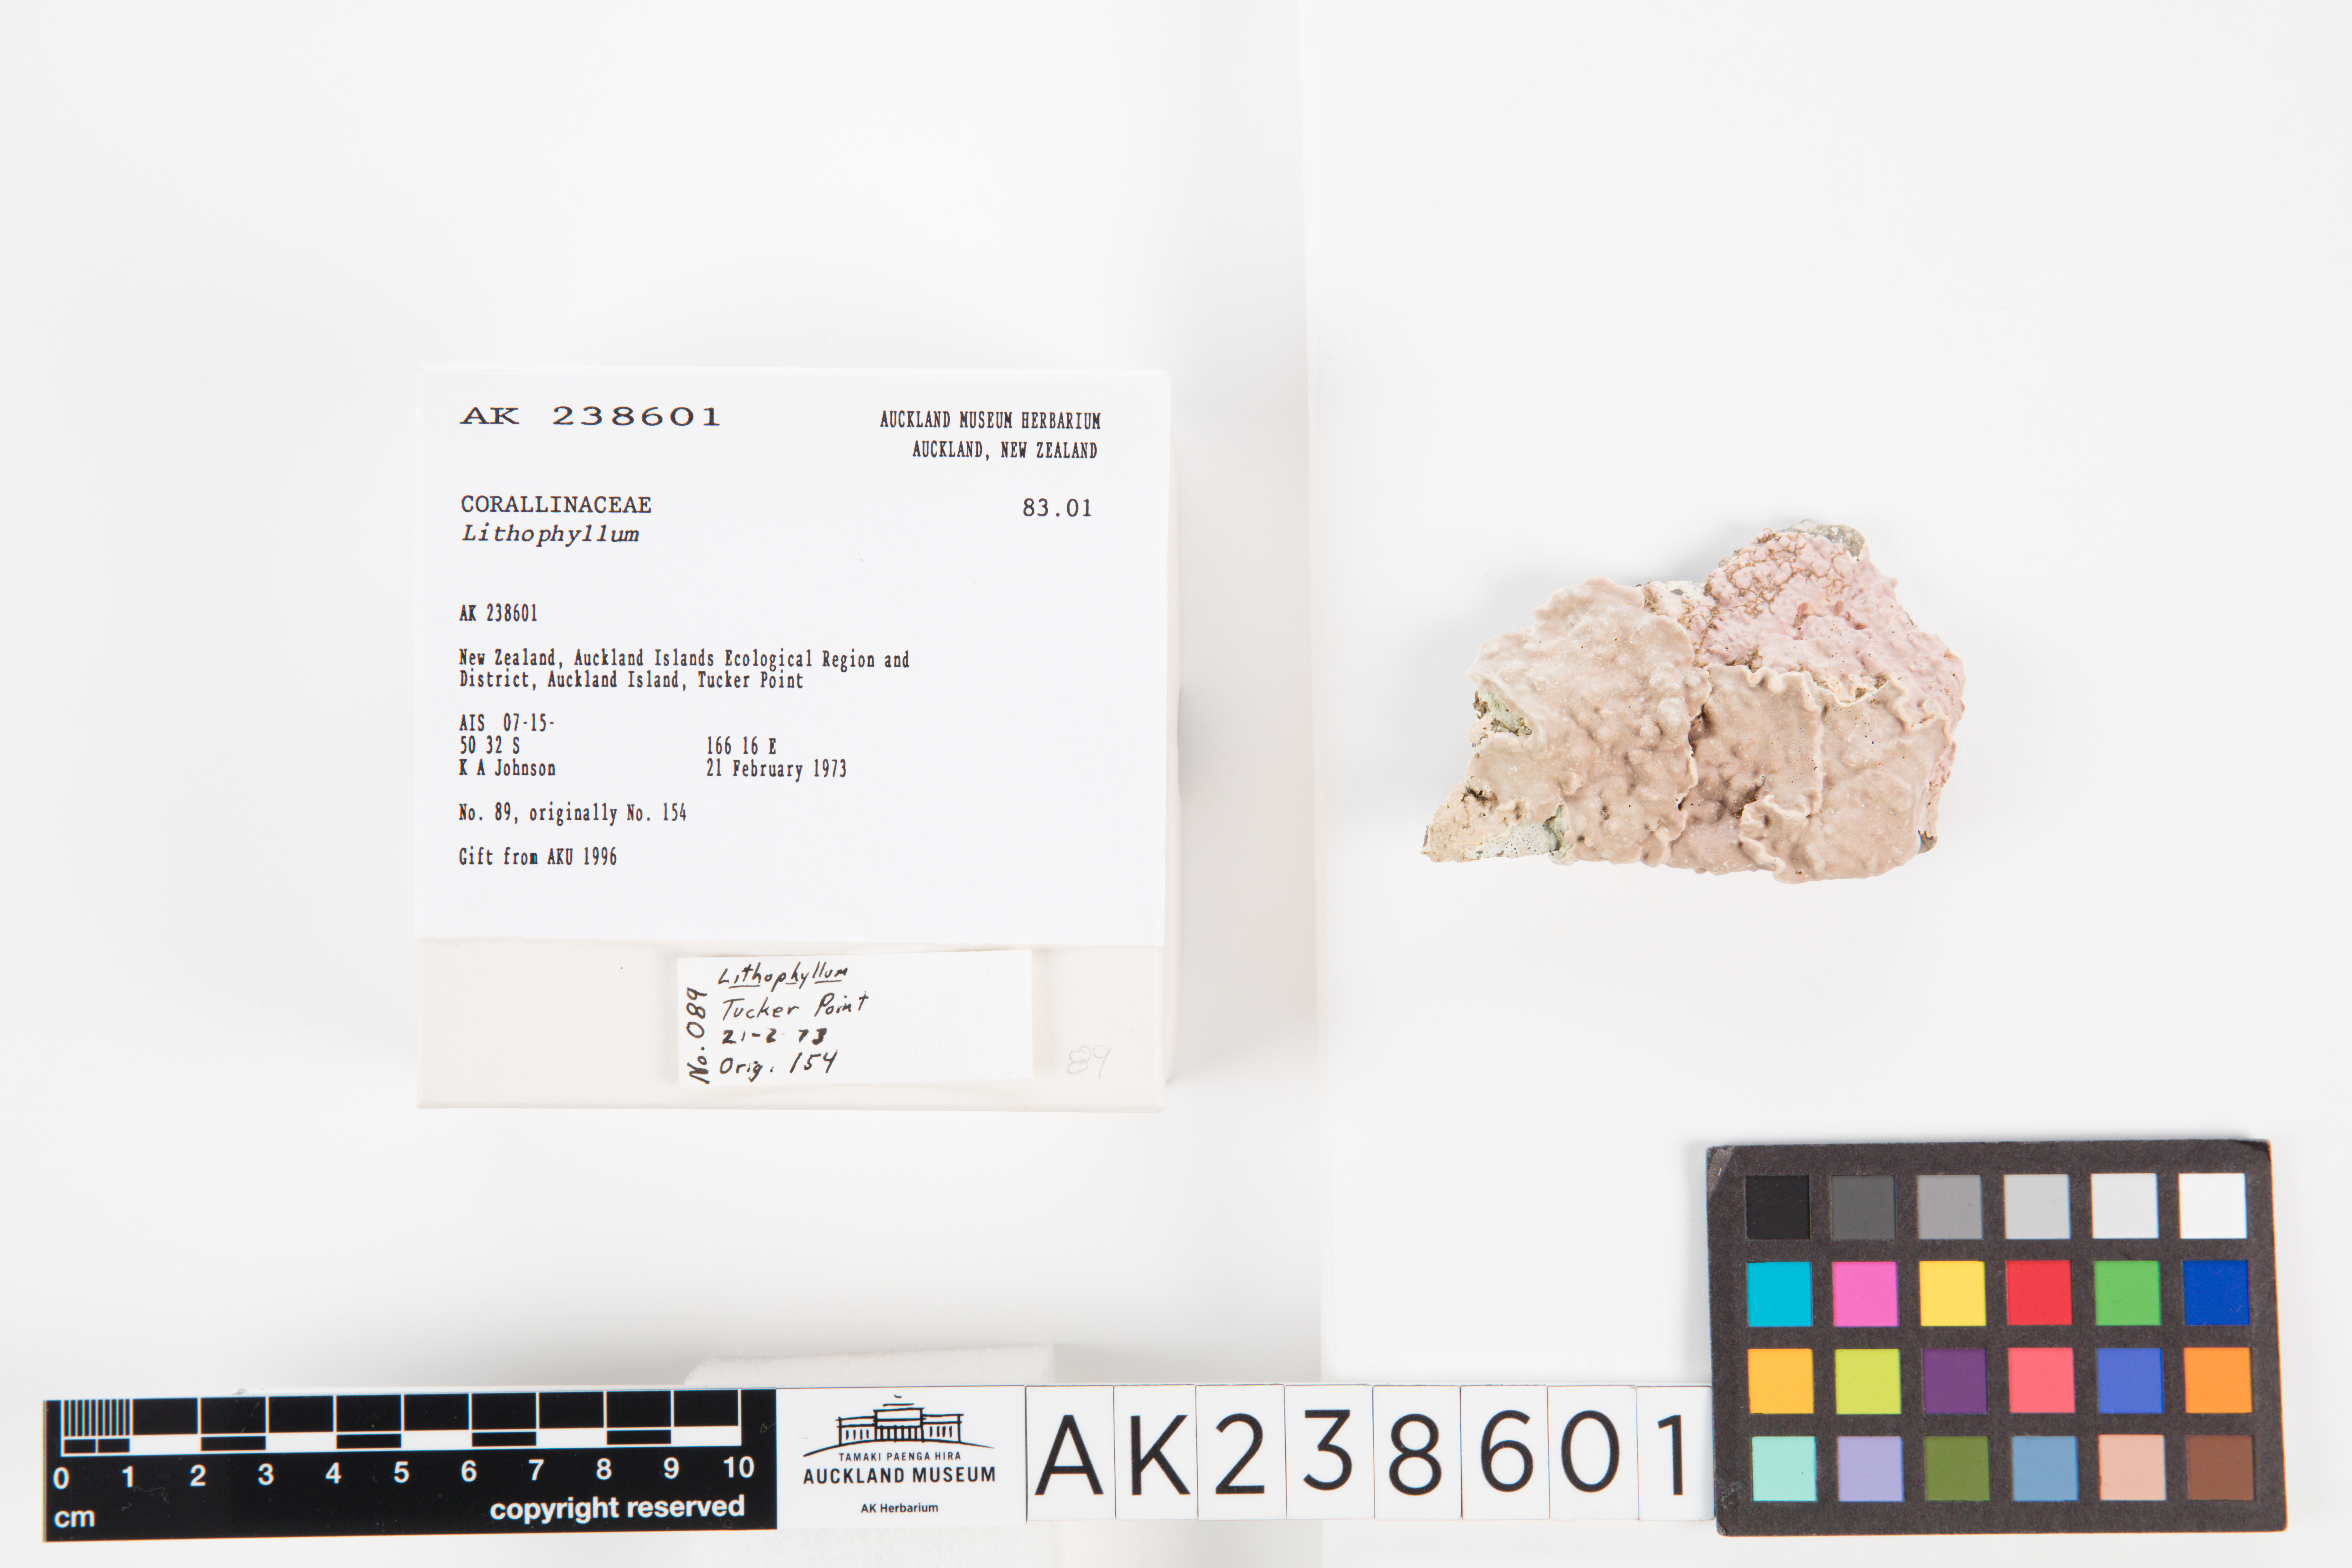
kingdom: Animalia
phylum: Cnidaria
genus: Lithophyllum
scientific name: Lithophyllum
